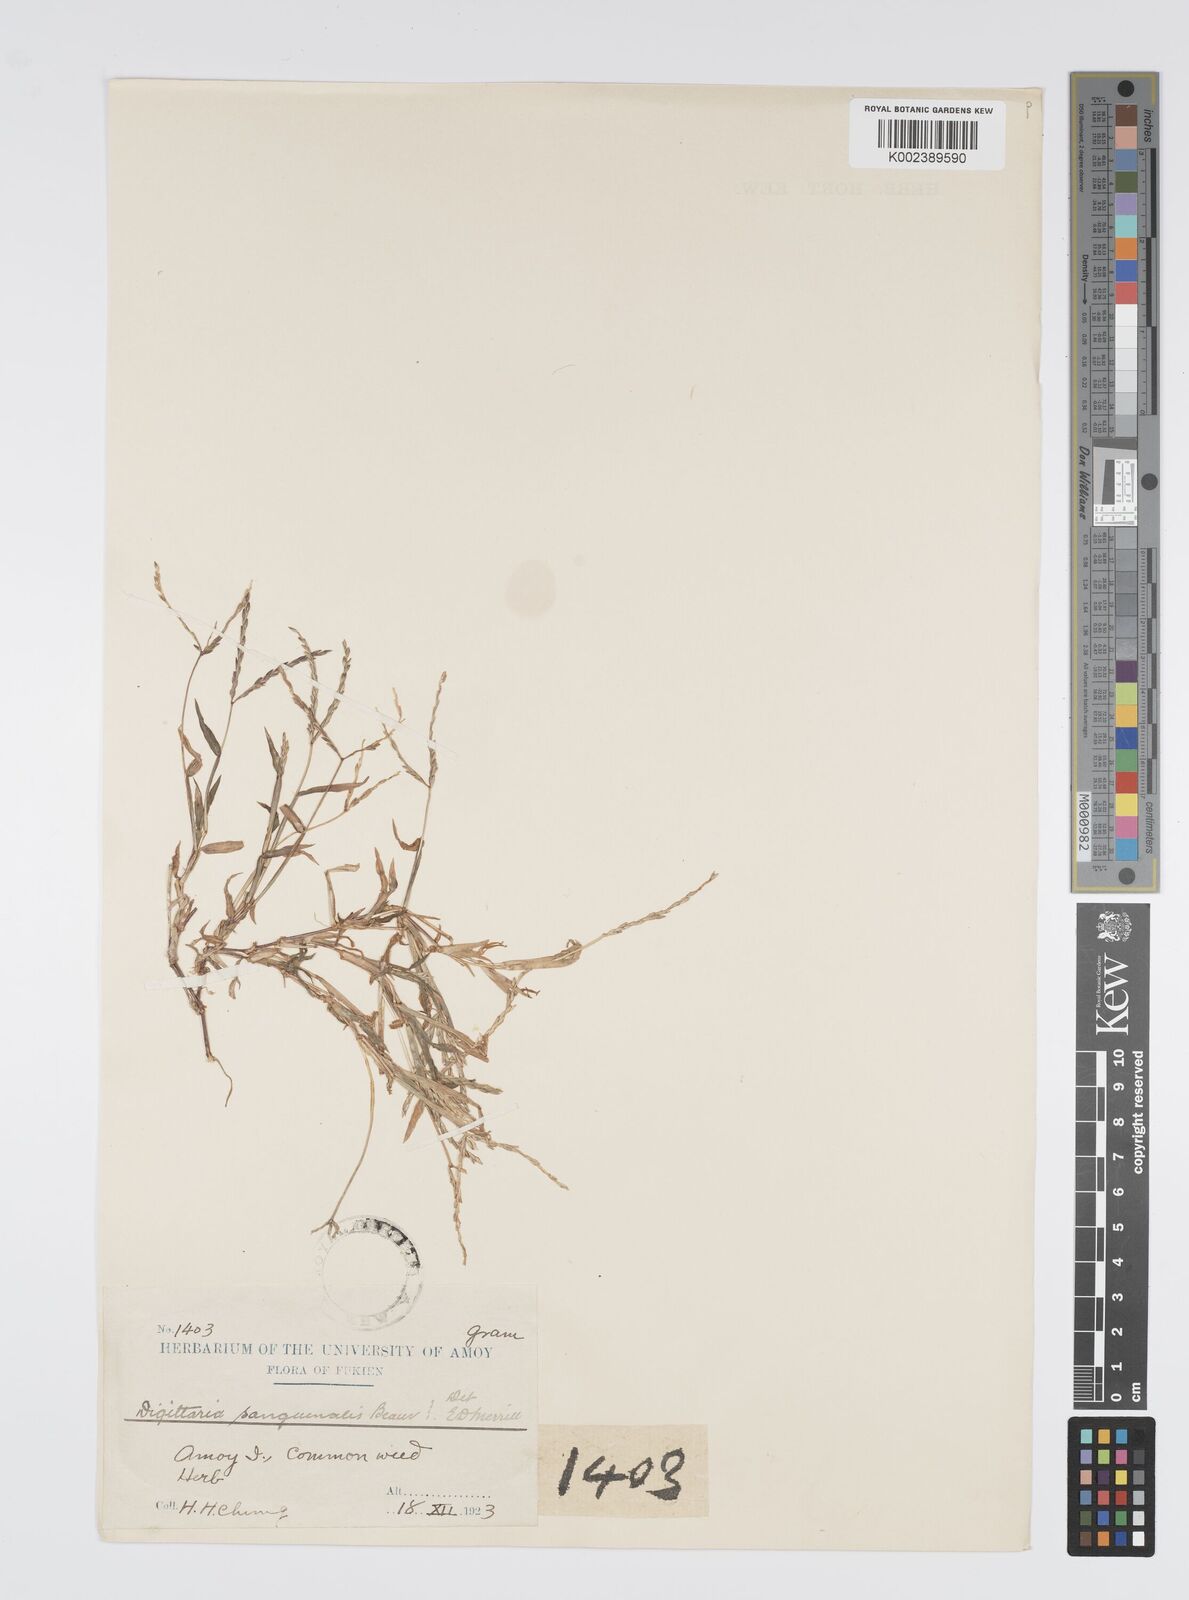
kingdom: Plantae
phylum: Tracheophyta
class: Liliopsida
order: Poales
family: Poaceae
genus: Digitaria
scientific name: Digitaria ciliaris
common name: Tropical finger-grass
